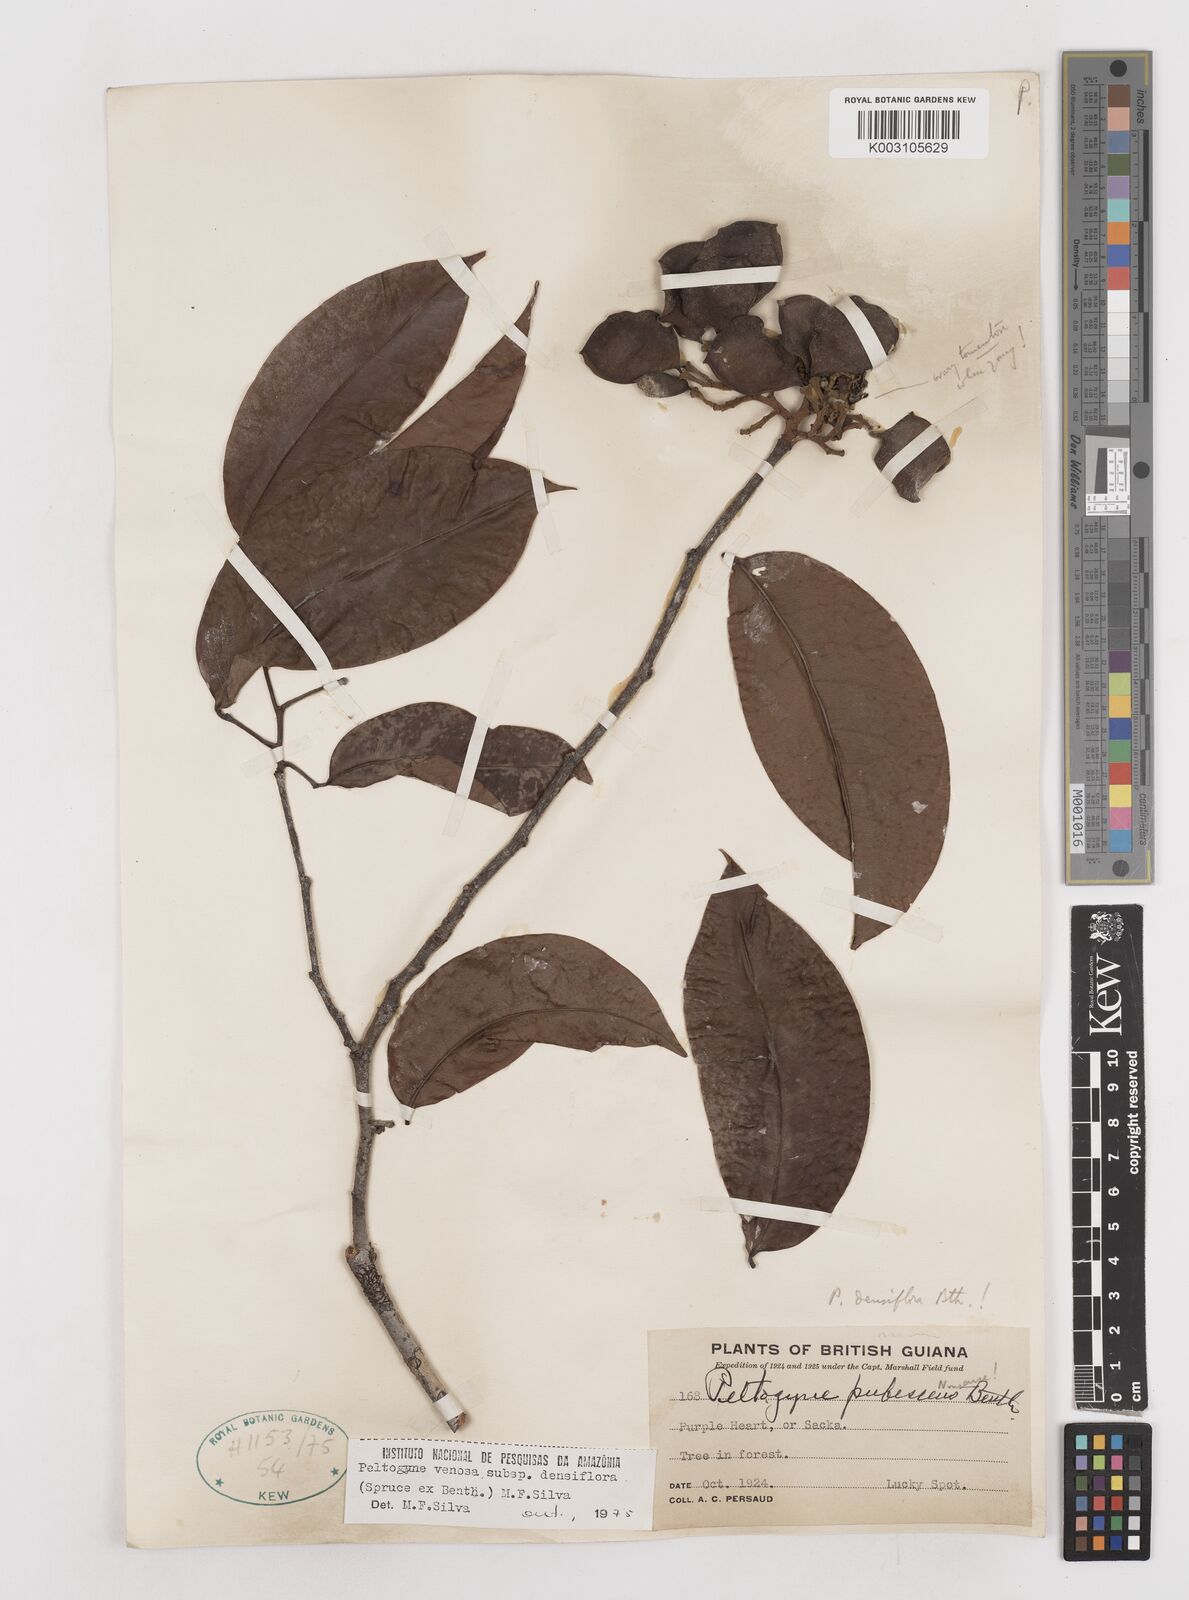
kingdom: Plantae
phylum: Tracheophyta
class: Magnoliopsida
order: Fabales
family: Fabaceae
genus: Peltogyne
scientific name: Peltogyne venosa
